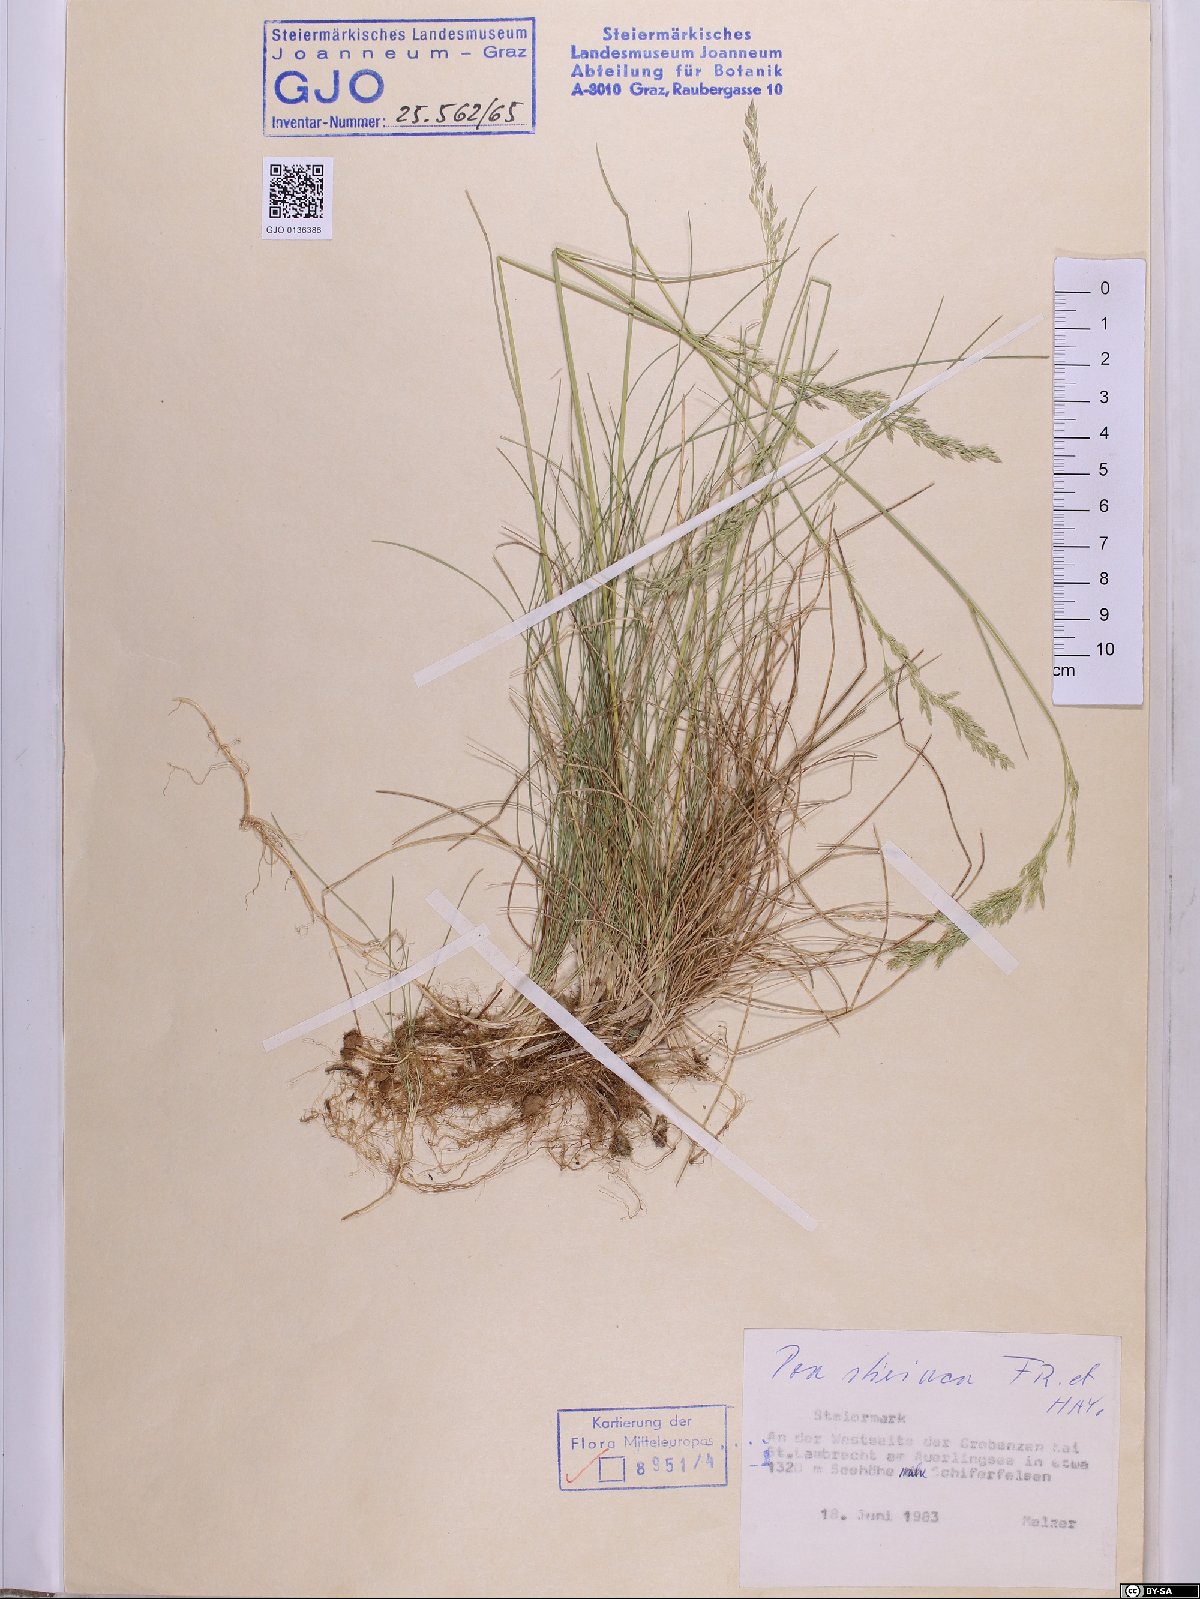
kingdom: Plantae
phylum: Tracheophyta
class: Liliopsida
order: Poales
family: Poaceae
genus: Poa
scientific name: Poa stiriaca
